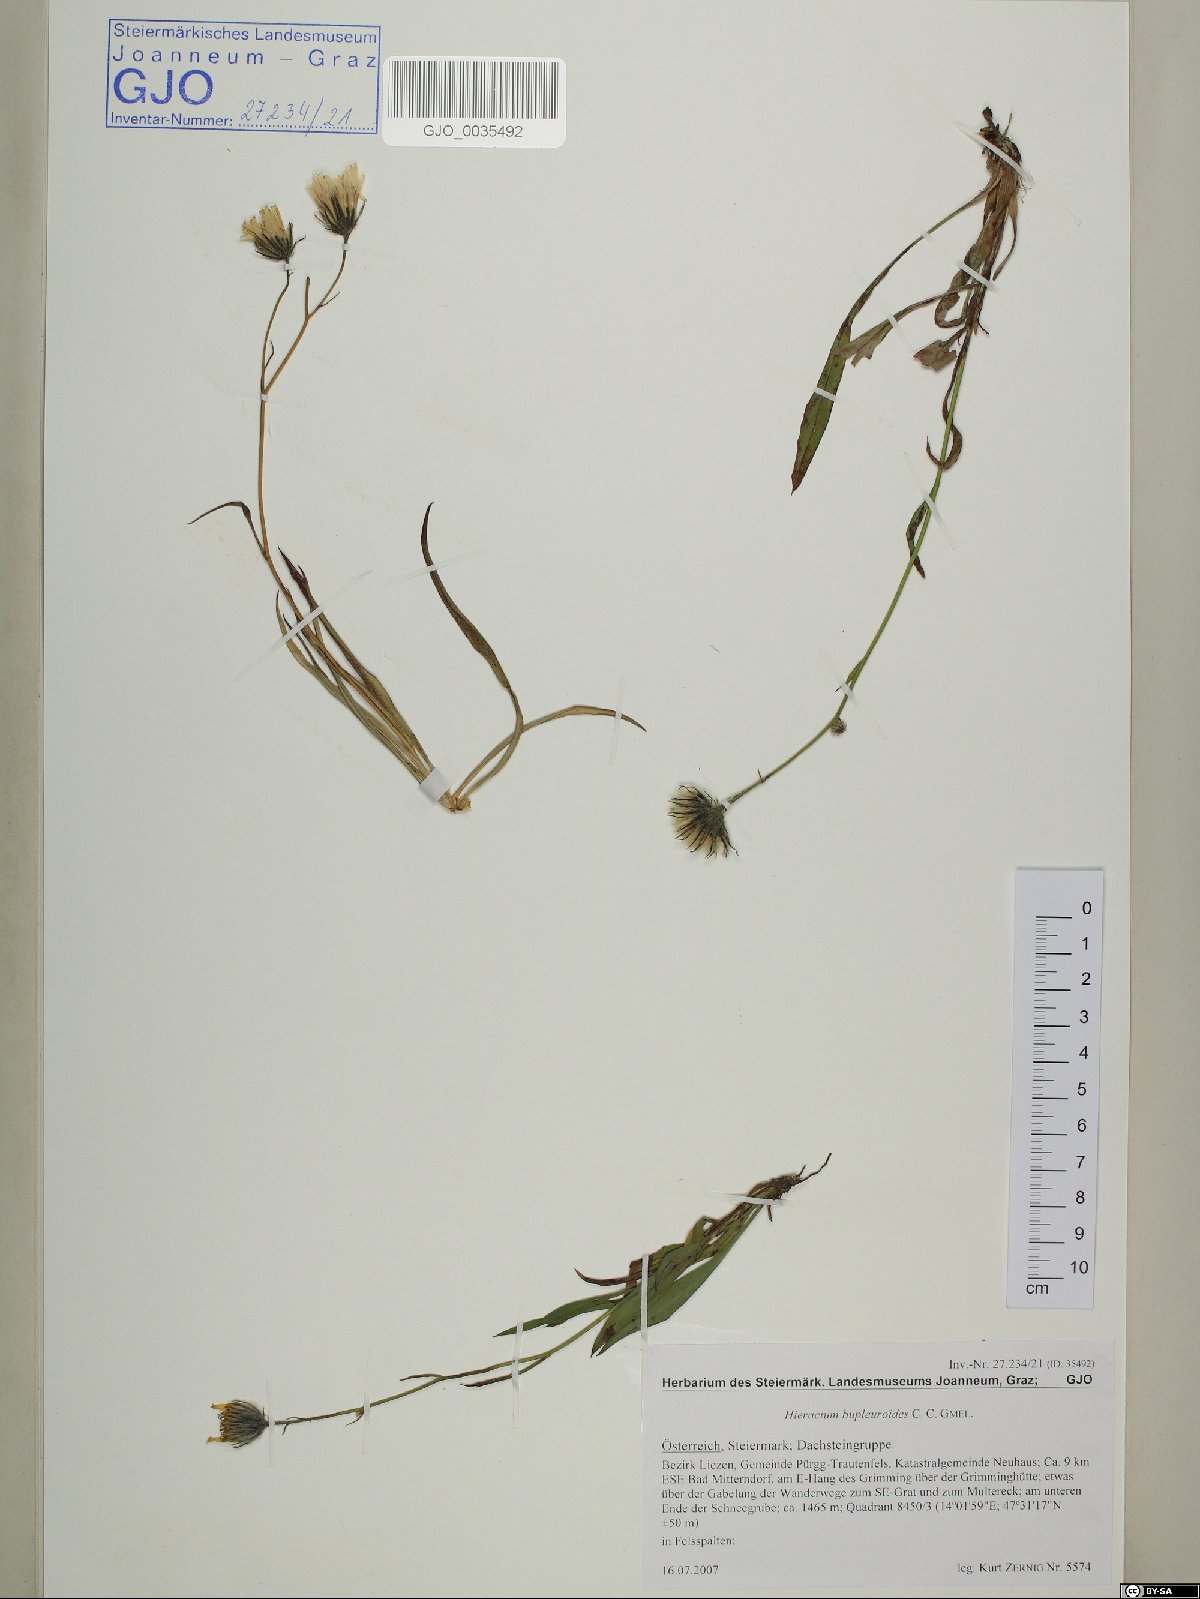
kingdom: Plantae
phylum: Tracheophyta
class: Magnoliopsida
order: Asterales
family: Asteraceae
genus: Hieracium
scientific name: Hieracium bupleuroides
